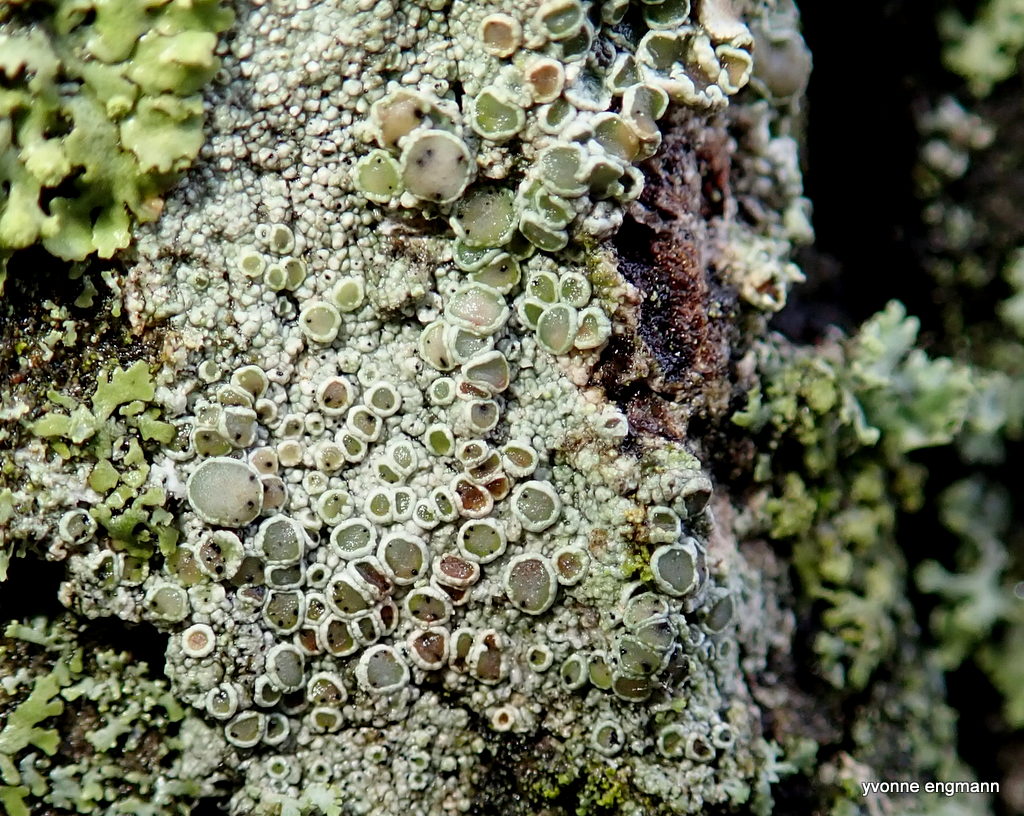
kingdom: Fungi
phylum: Ascomycota
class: Lecanoromycetes
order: Lecanorales
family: Lecanoraceae
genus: Lecanora
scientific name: Lecanora chlarotera
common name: brun kantskivelav
